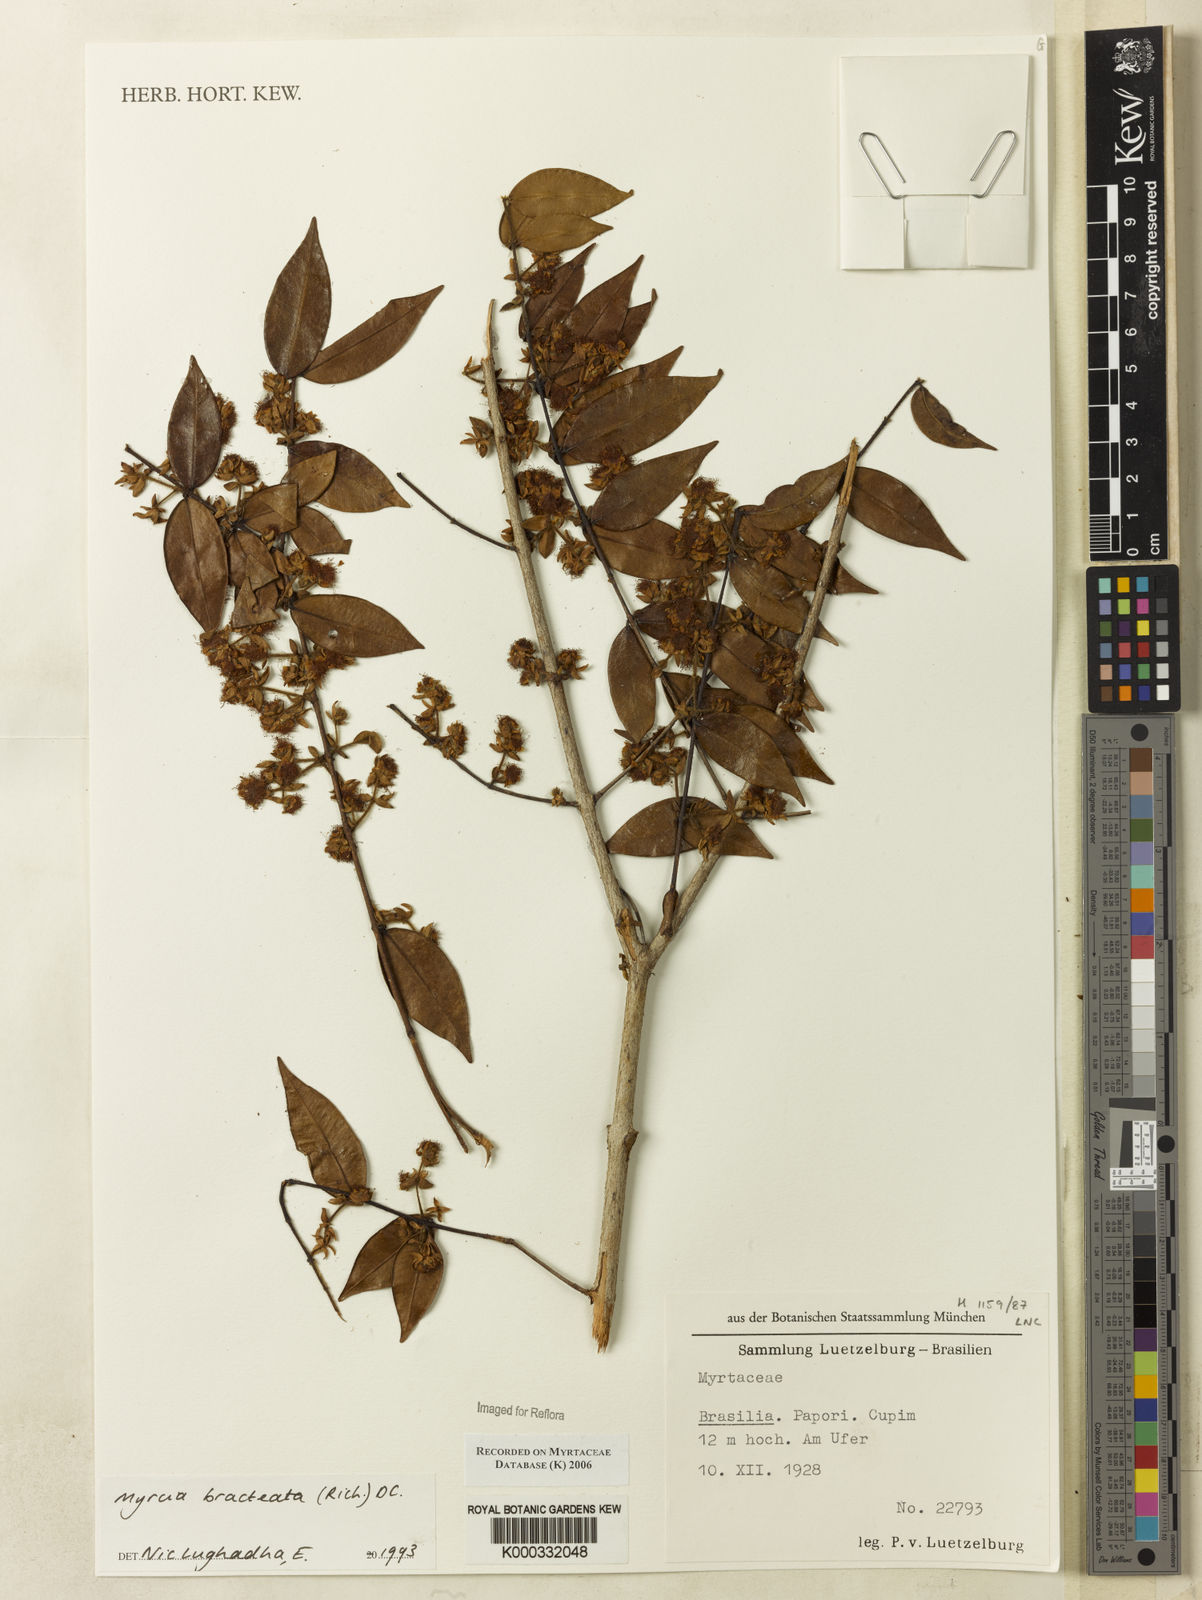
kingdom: Plantae
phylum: Tracheophyta
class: Magnoliopsida
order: Myrtales
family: Myrtaceae
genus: Myrcia
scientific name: Myrcia bracteata
